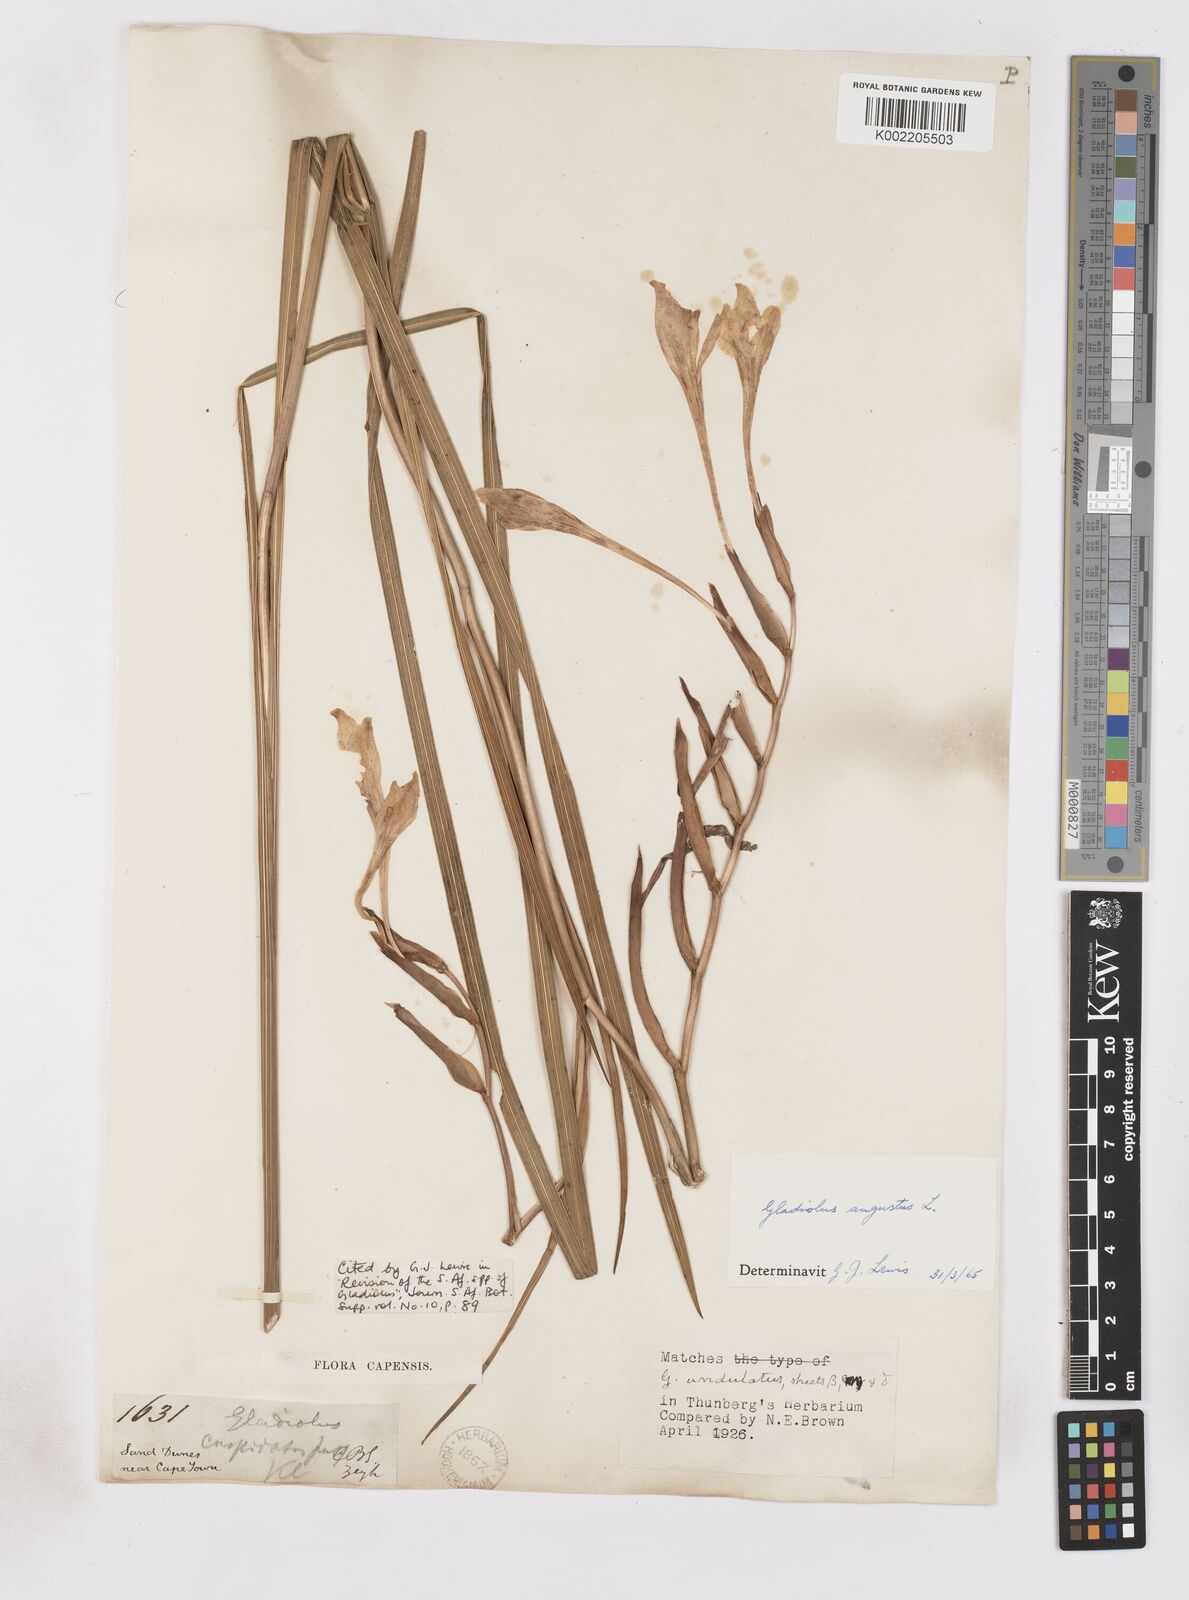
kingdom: Plantae
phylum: Tracheophyta
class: Liliopsida
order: Asparagales
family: Iridaceae
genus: Gladiolus
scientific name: Gladiolus angustus
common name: Painted-lady
